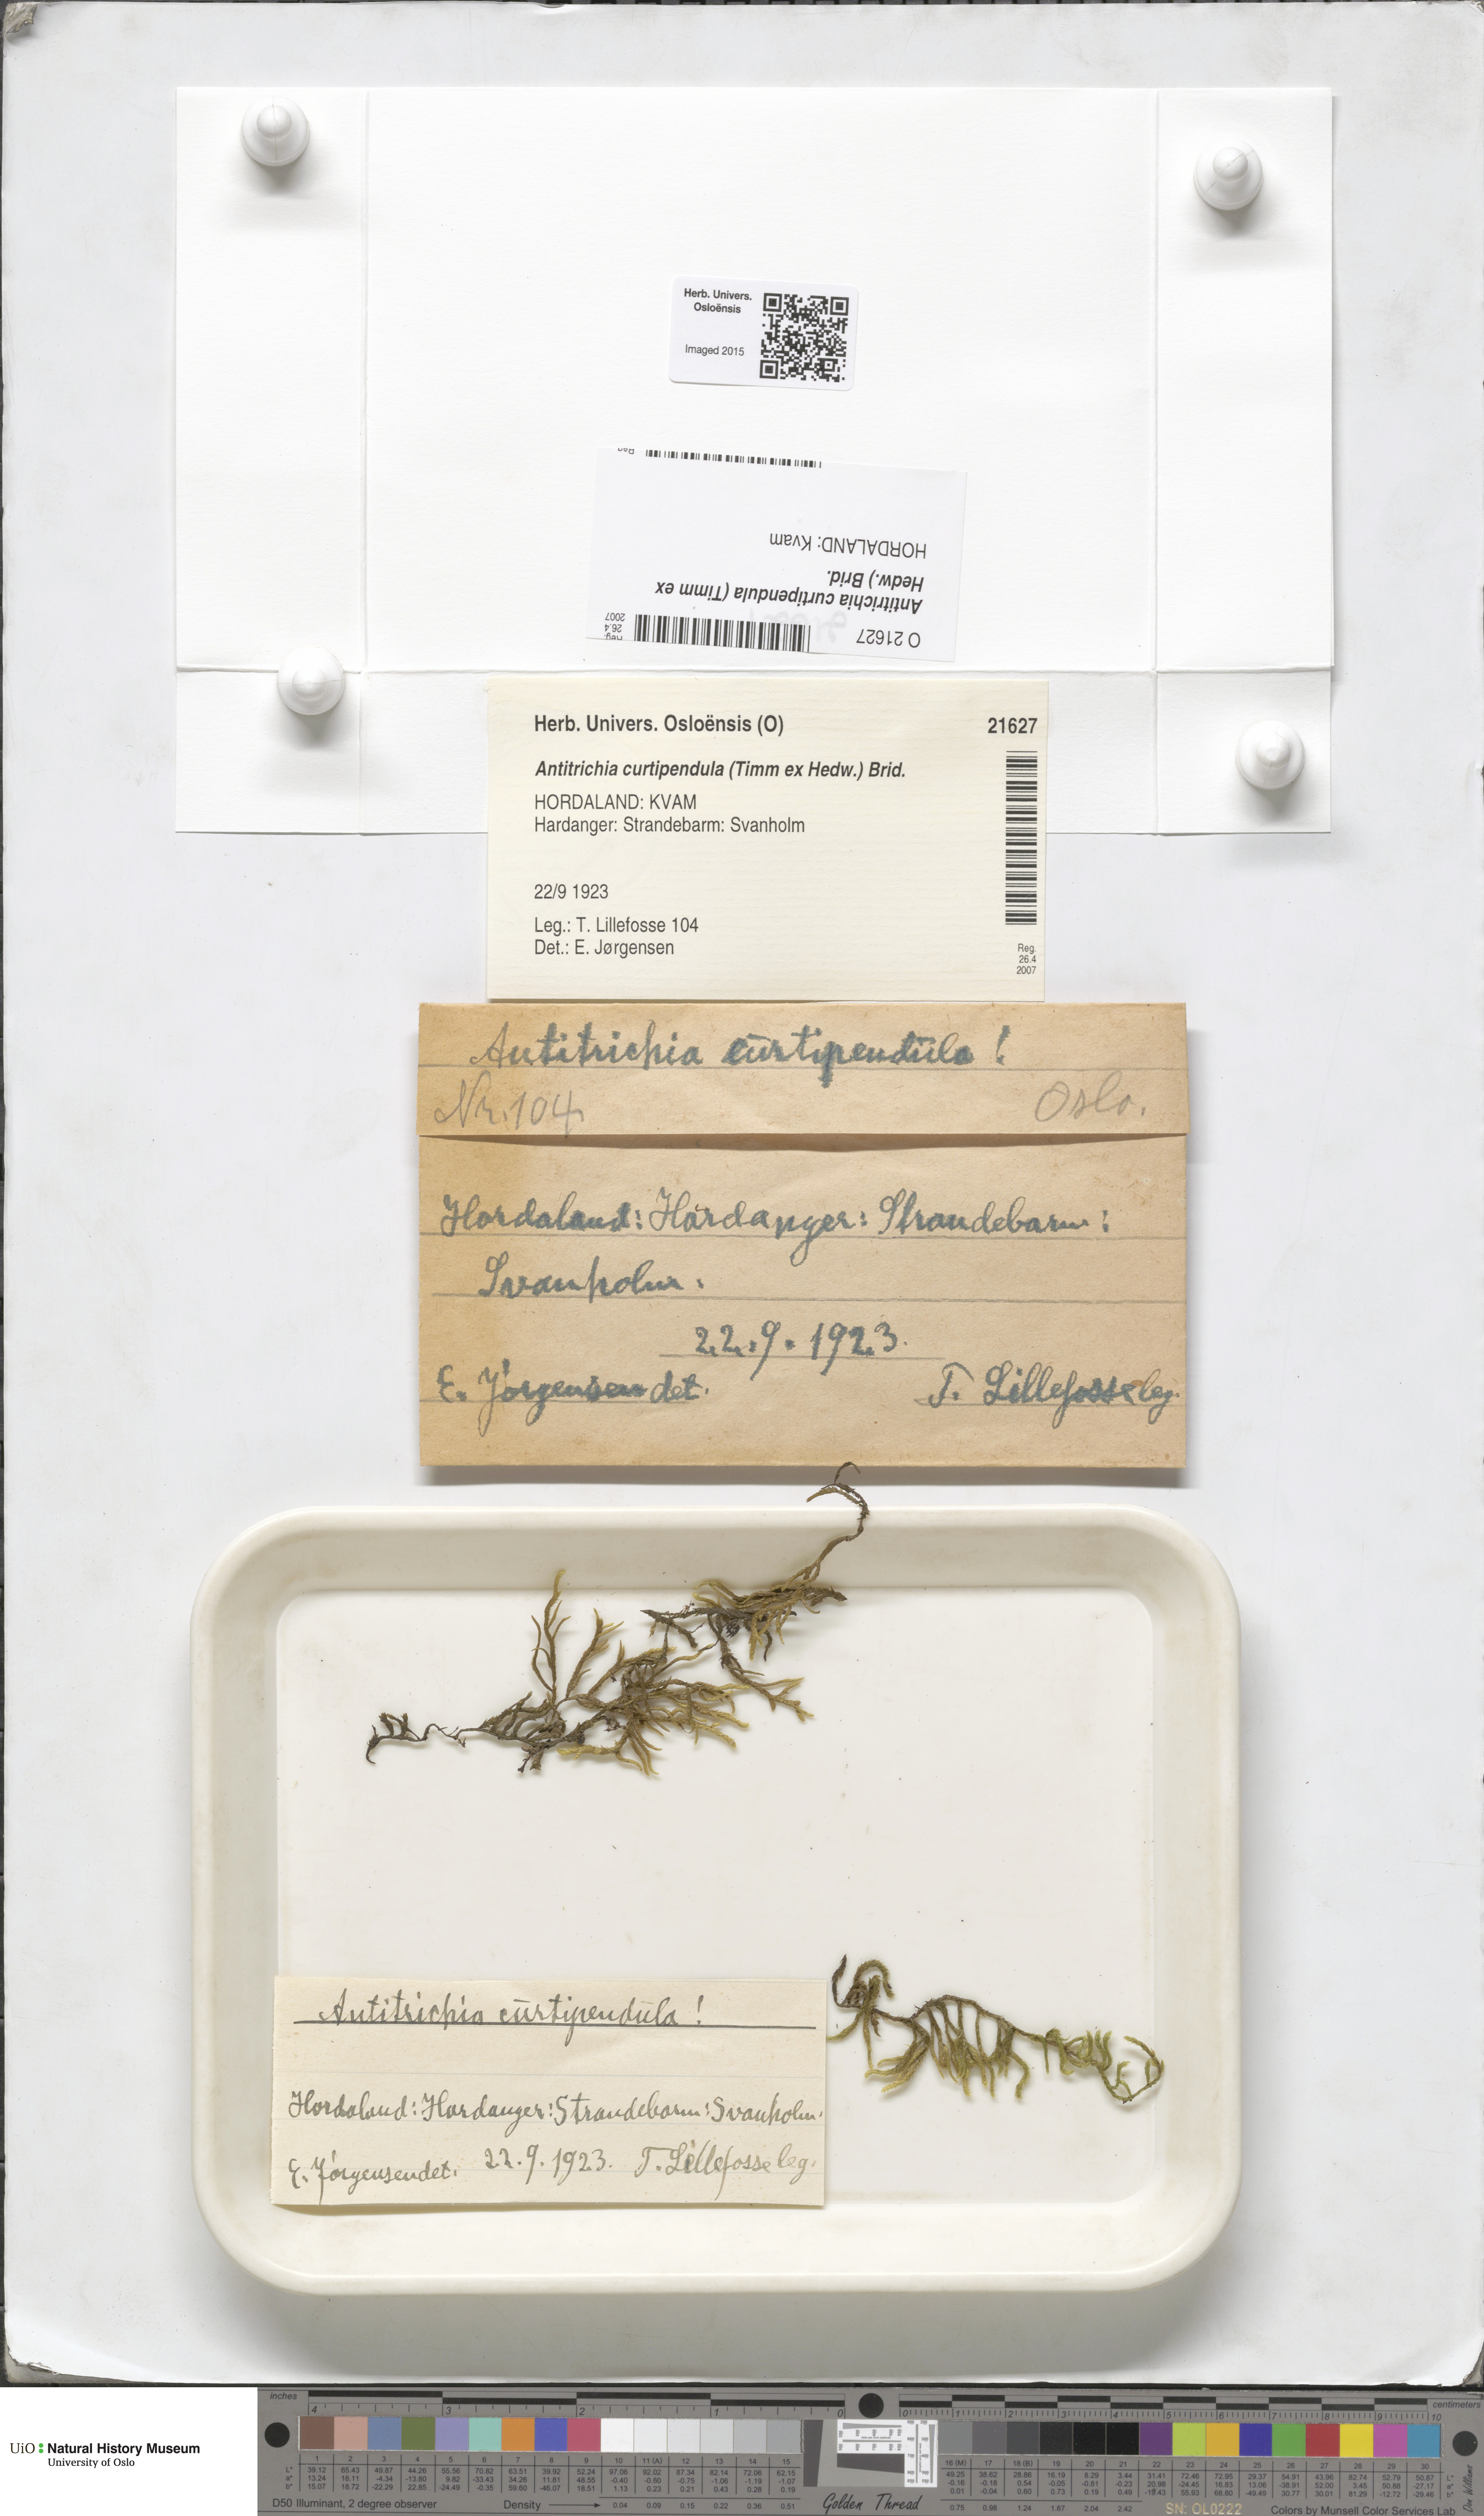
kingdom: Plantae
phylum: Bryophyta
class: Bryopsida
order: Hypnales
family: Antitrichiaceae
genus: Antitrichia
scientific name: Antitrichia curtipendula
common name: Pendulous wing-moss
